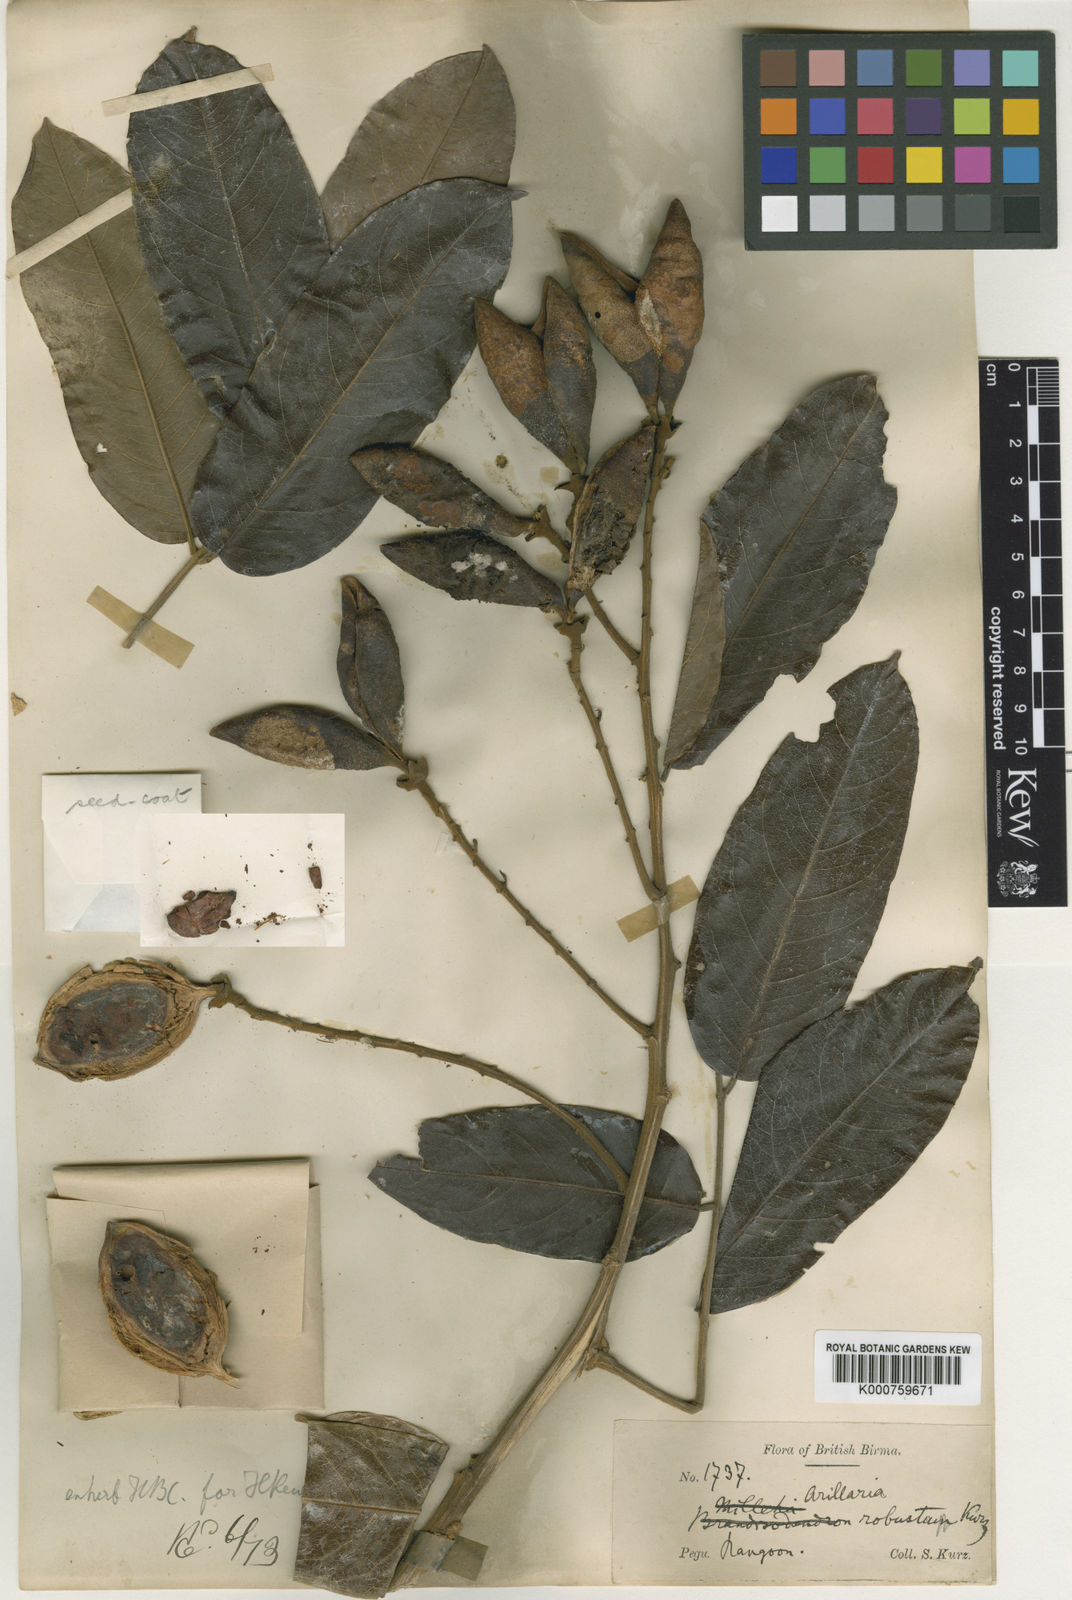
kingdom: Plantae
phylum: Tracheophyta
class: Magnoliopsida
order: Fabales
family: Fabaceae
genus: Ormosia
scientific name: Ormosia
